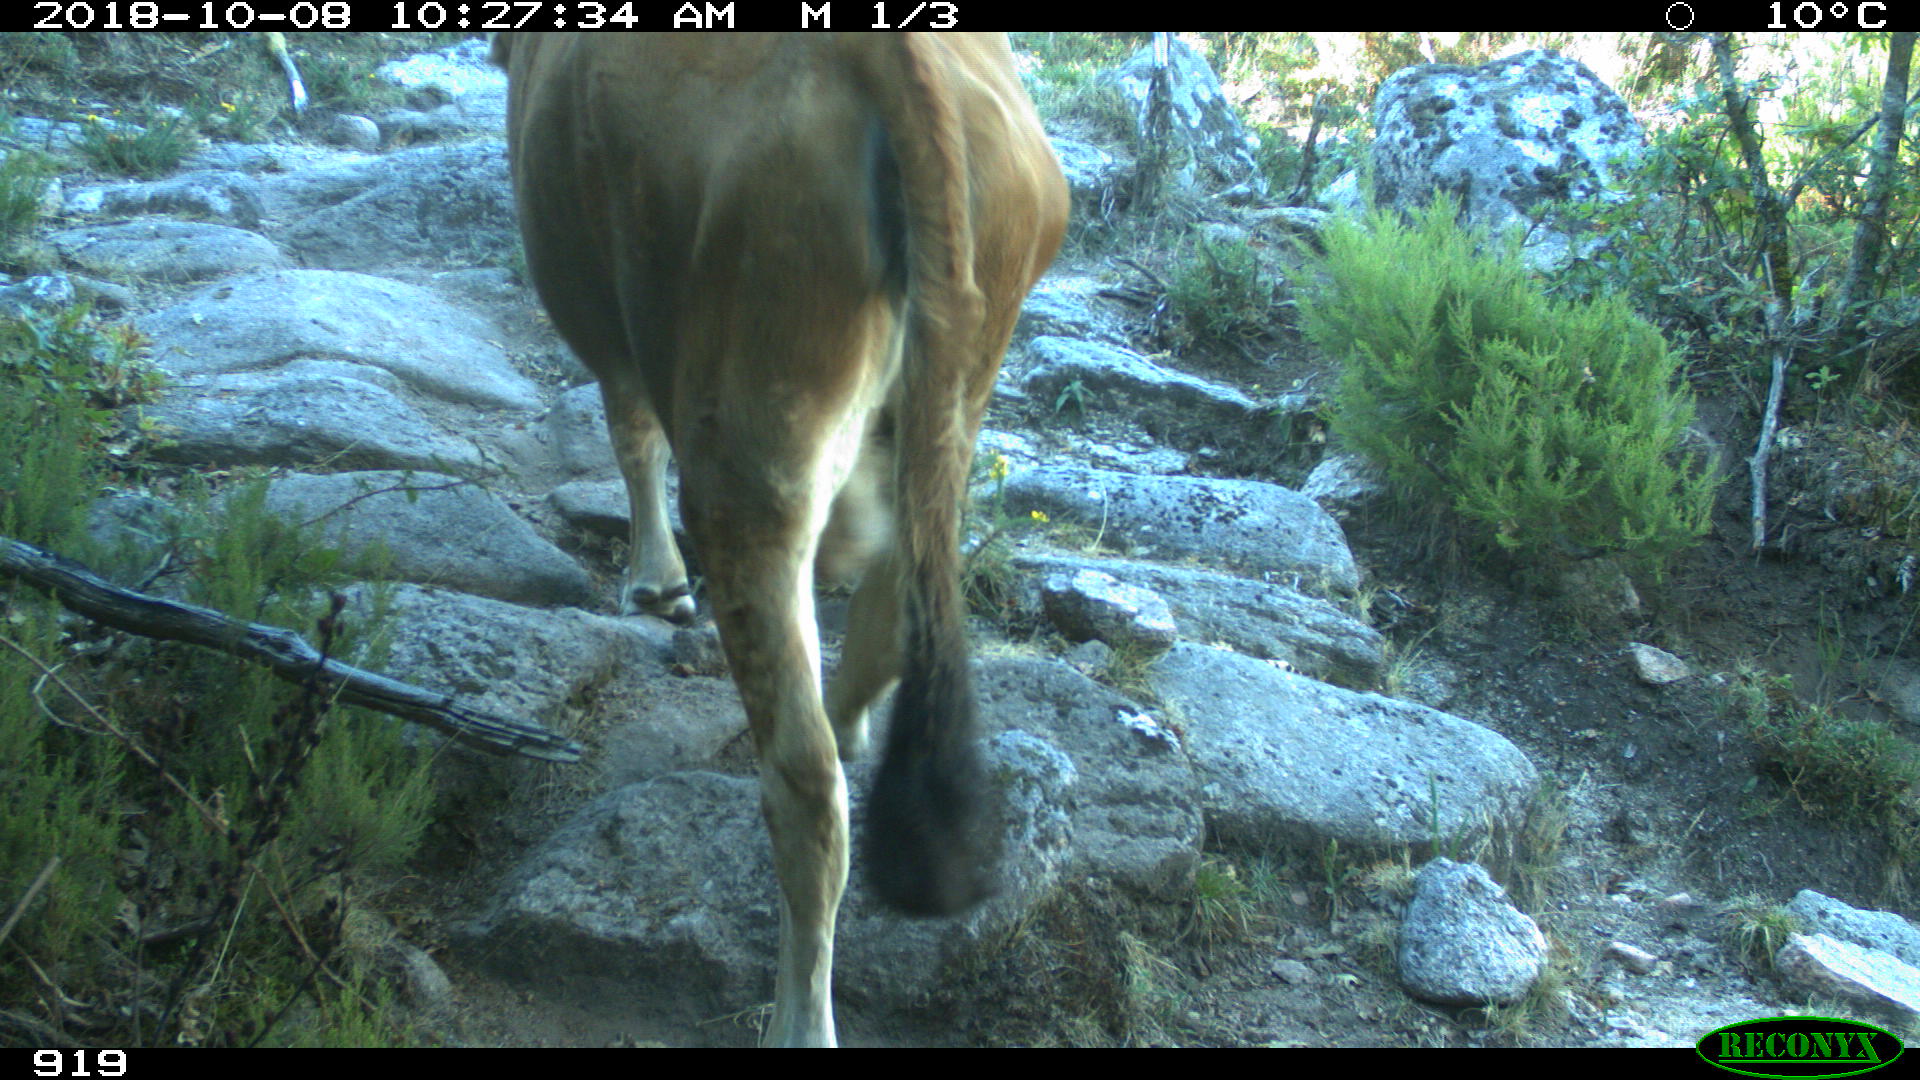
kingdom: Animalia
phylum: Chordata
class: Mammalia
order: Artiodactyla
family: Bovidae
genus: Bos
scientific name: Bos taurus
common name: Domesticated cattle
